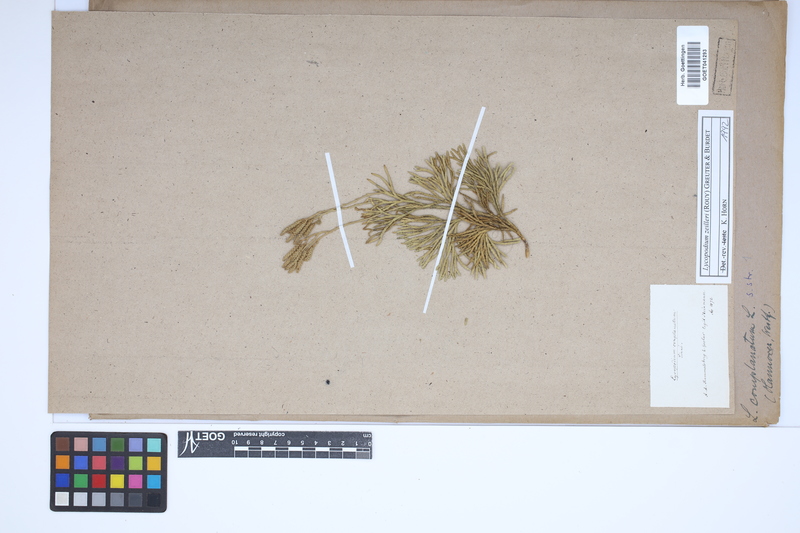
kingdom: Plantae
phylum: Tracheophyta
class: Lycopodiopsida
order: Lycopodiales
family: Lycopodiaceae
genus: Diphasiastrum
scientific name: Diphasiastrum zeilleri
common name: Zeiller's clubmoss
